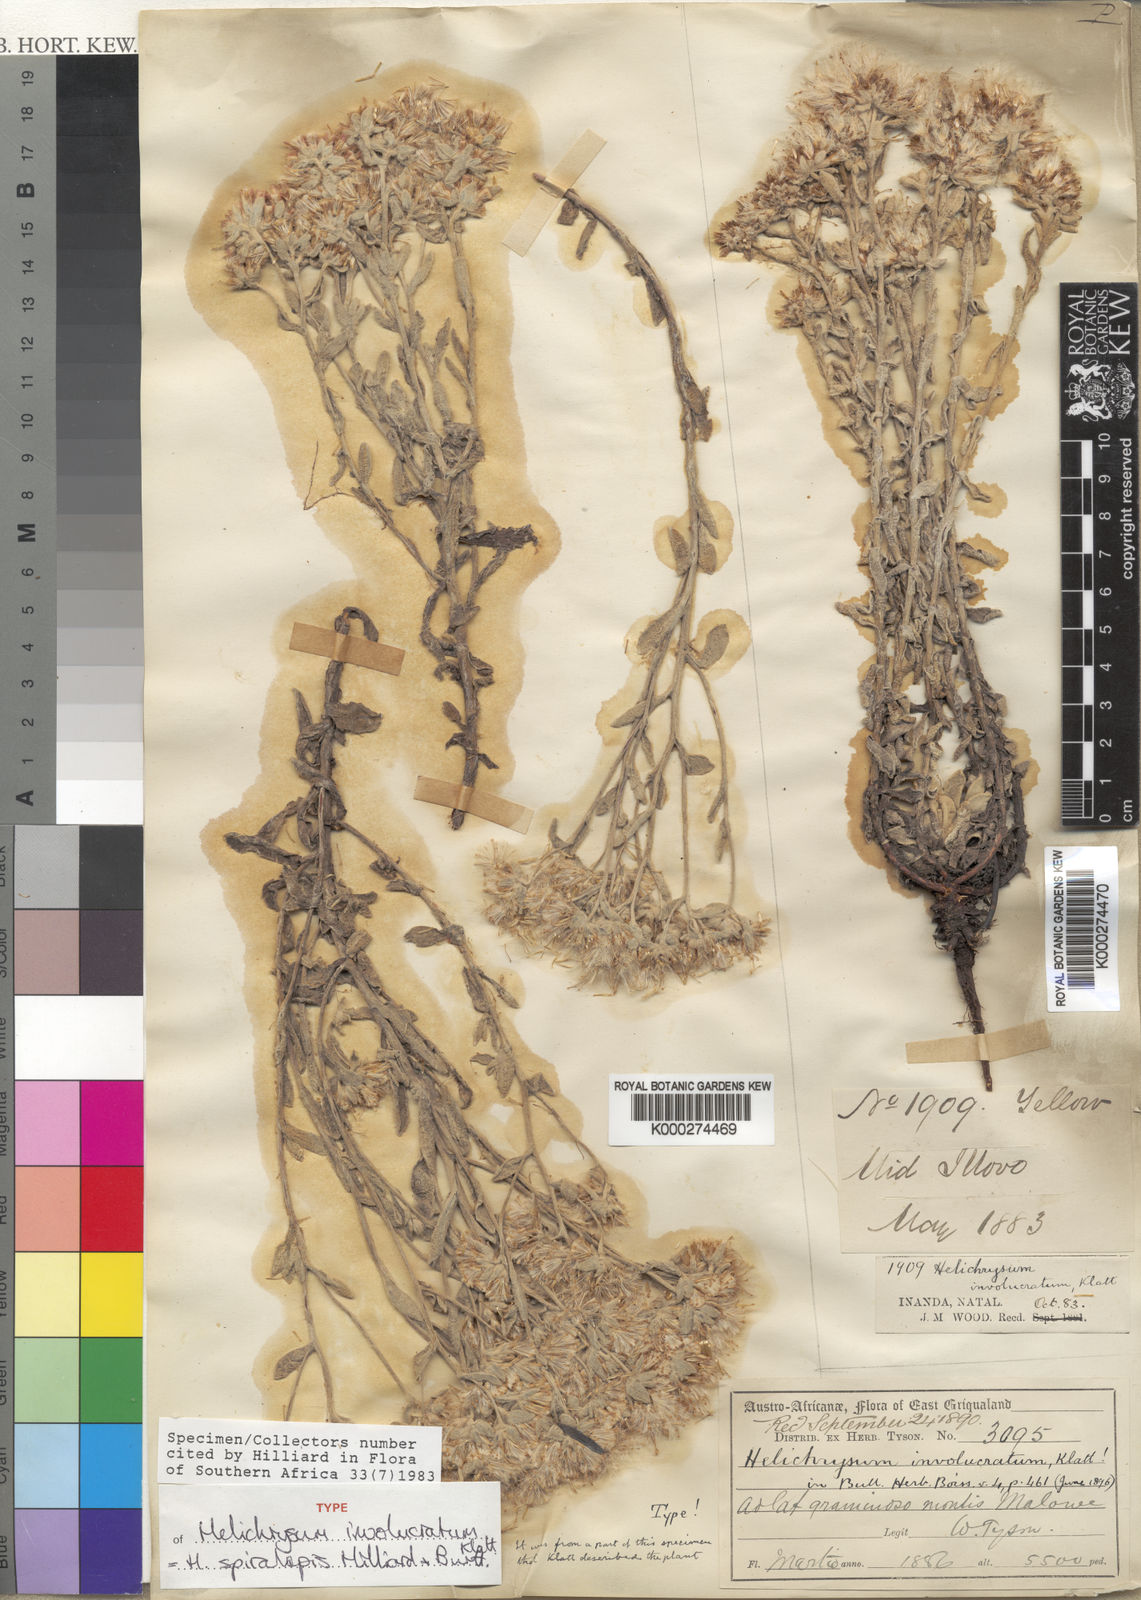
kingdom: Plantae
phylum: Tracheophyta
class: Magnoliopsida
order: Asterales
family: Asteraceae
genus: Helichrysum
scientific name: Helichrysum spiralepis
